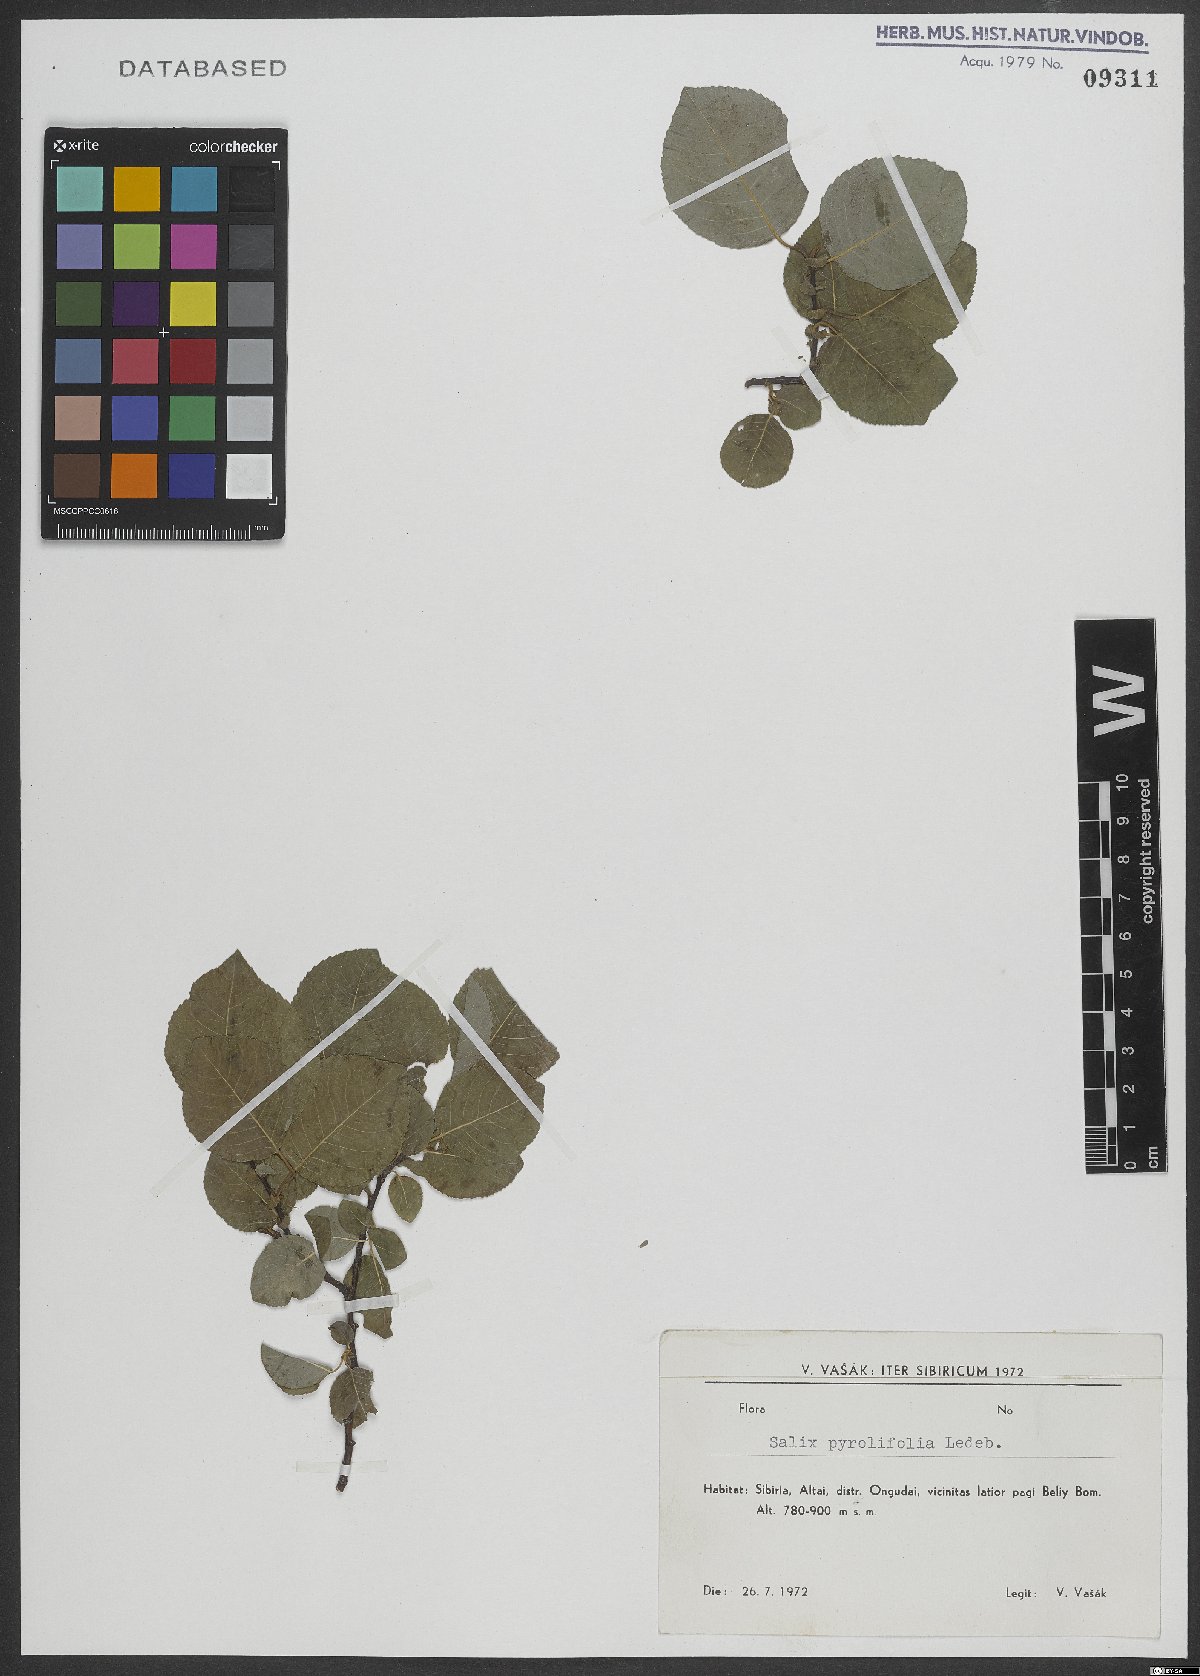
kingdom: Plantae
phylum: Tracheophyta
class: Magnoliopsida
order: Malpighiales
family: Salicaceae
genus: Salix
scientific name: Salix pyrolifolia
